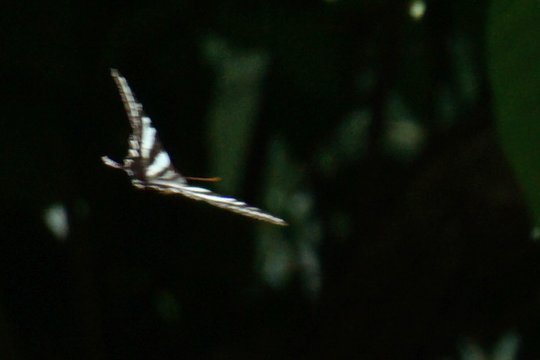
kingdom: Animalia
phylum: Arthropoda
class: Insecta
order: Lepidoptera
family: Papilionidae
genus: Protographium
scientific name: Protographium marcellus
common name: Zebra Swallowtail
